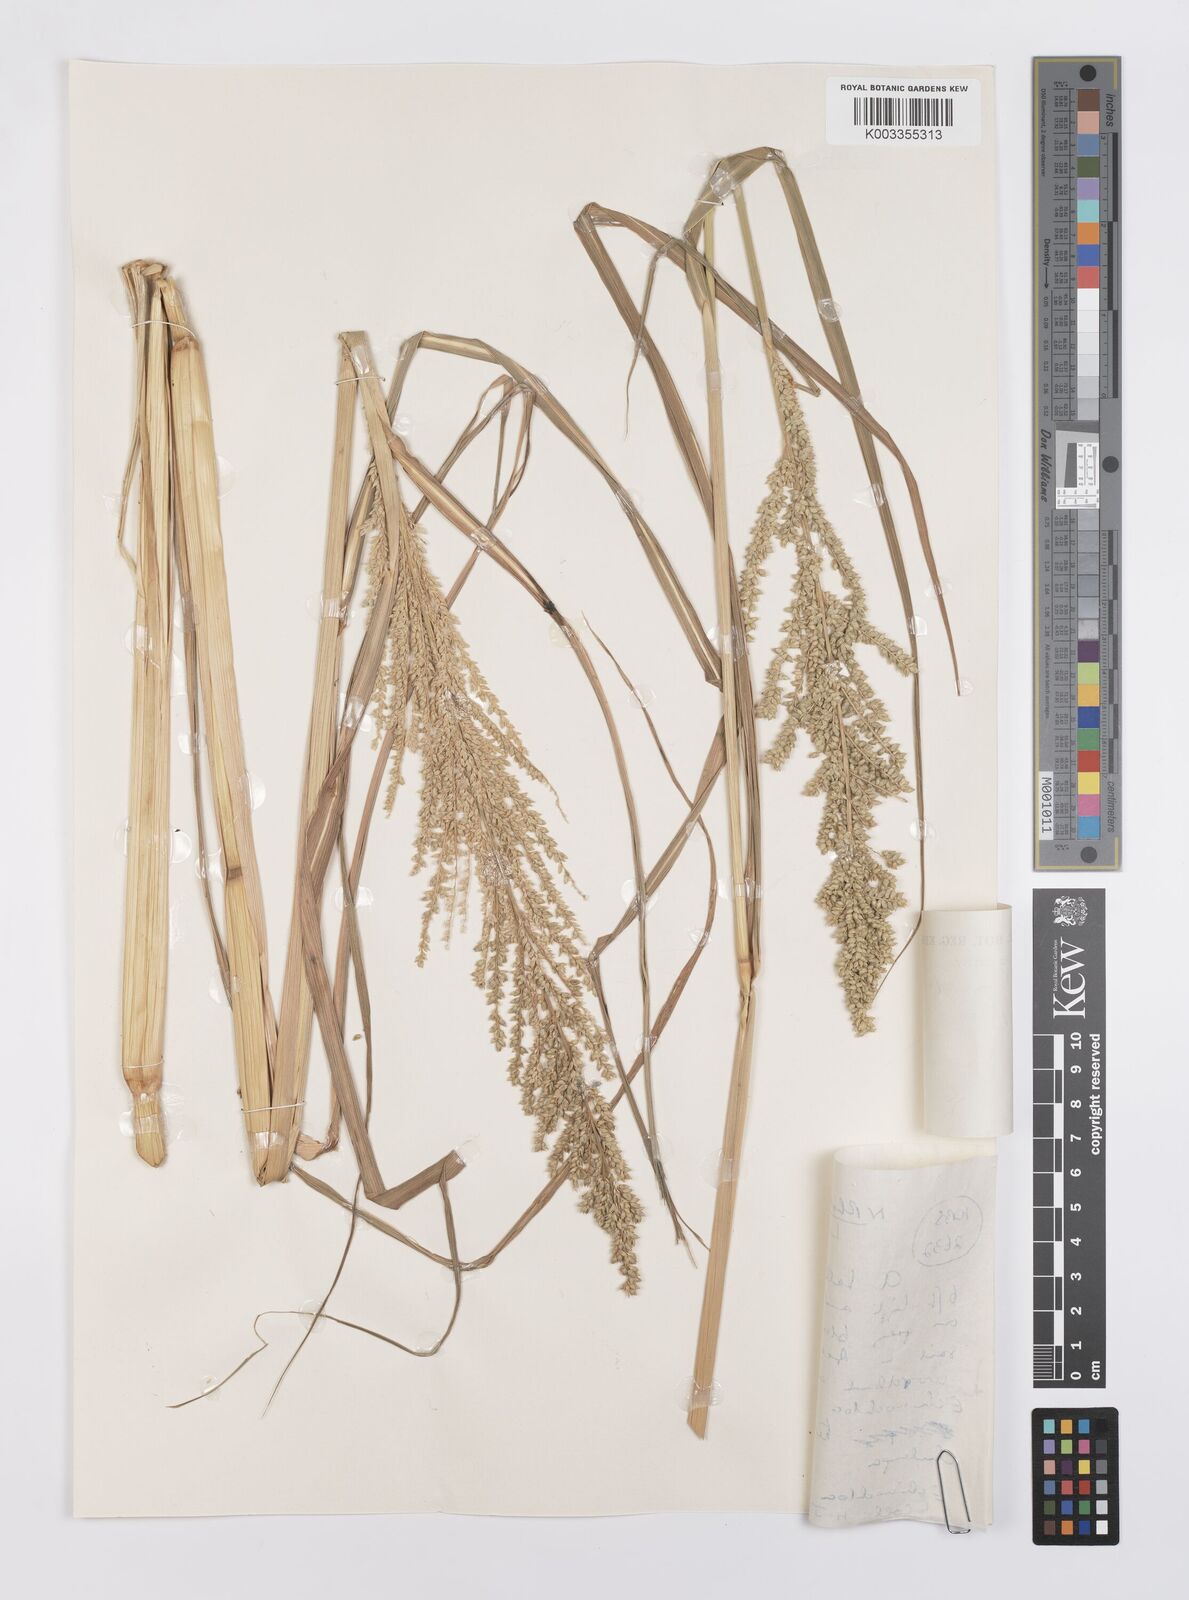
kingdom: Plantae
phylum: Tracheophyta
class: Liliopsida
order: Poales
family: Poaceae
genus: Echinochloa
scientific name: Echinochloa pyramidalis
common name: Antelope grass
